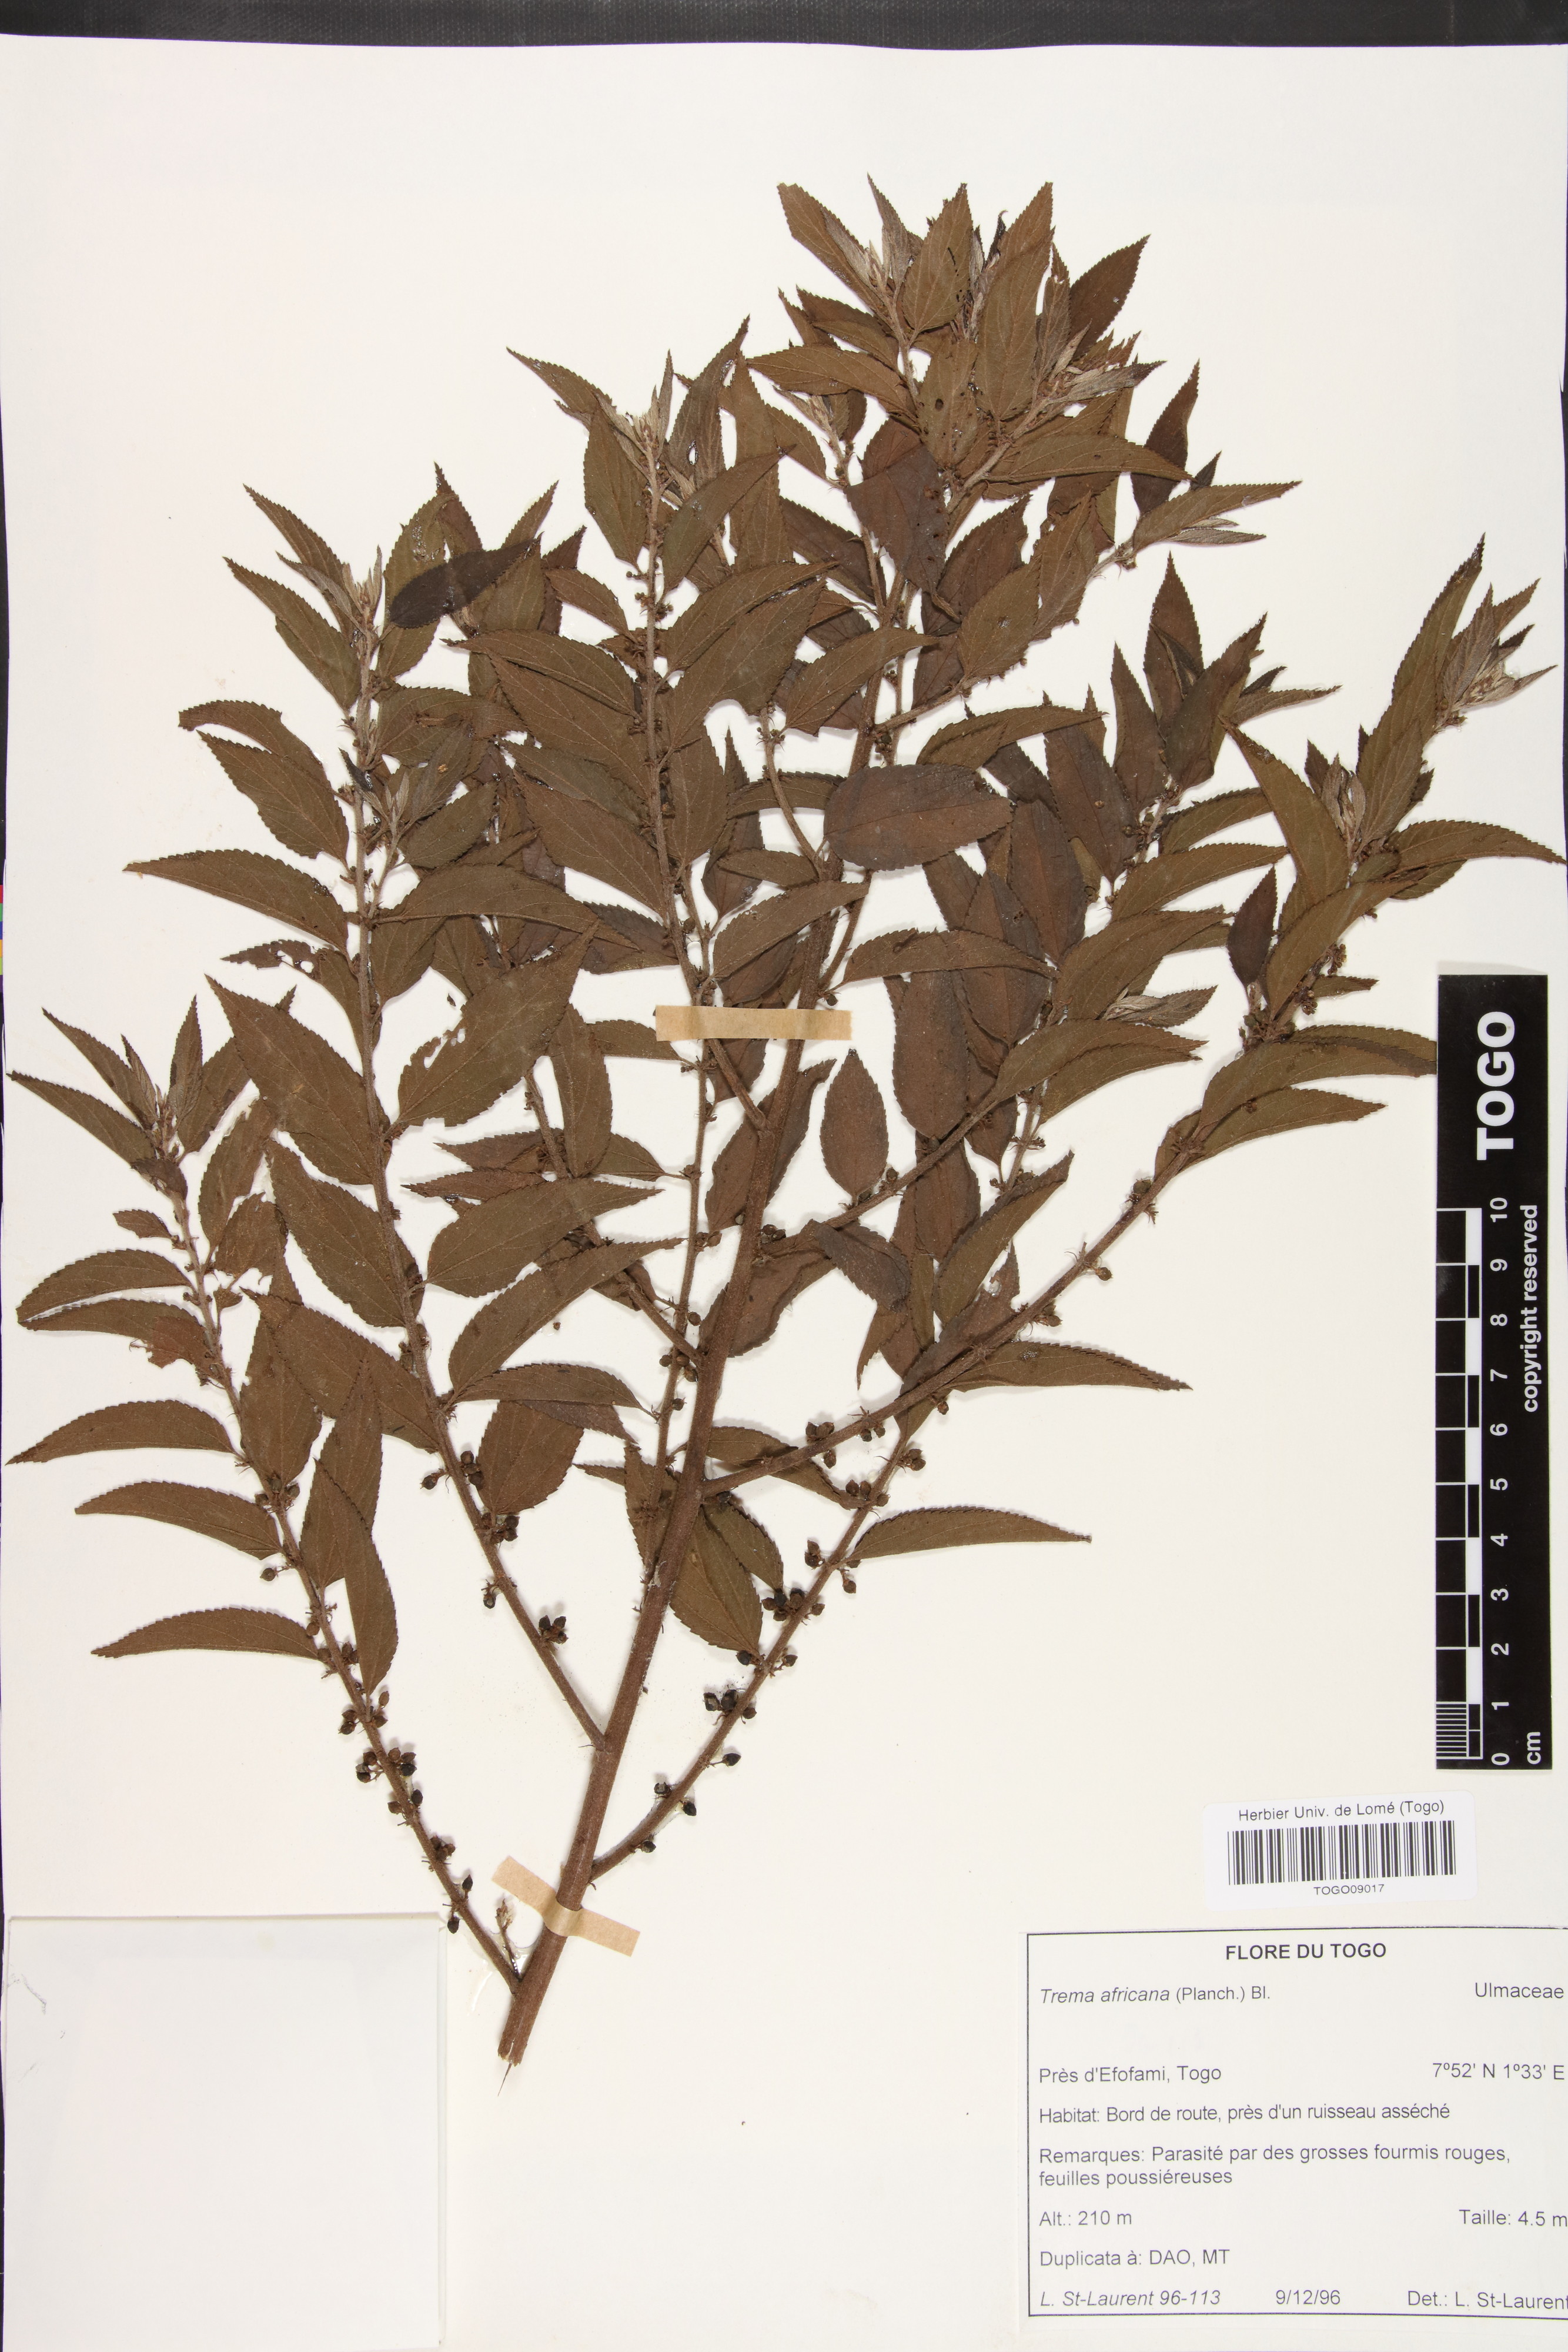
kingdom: Plantae
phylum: Tracheophyta
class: Magnoliopsida
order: Rosales
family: Cannabaceae
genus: Trema
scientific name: Trema orientale
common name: Indian charcoal tree
